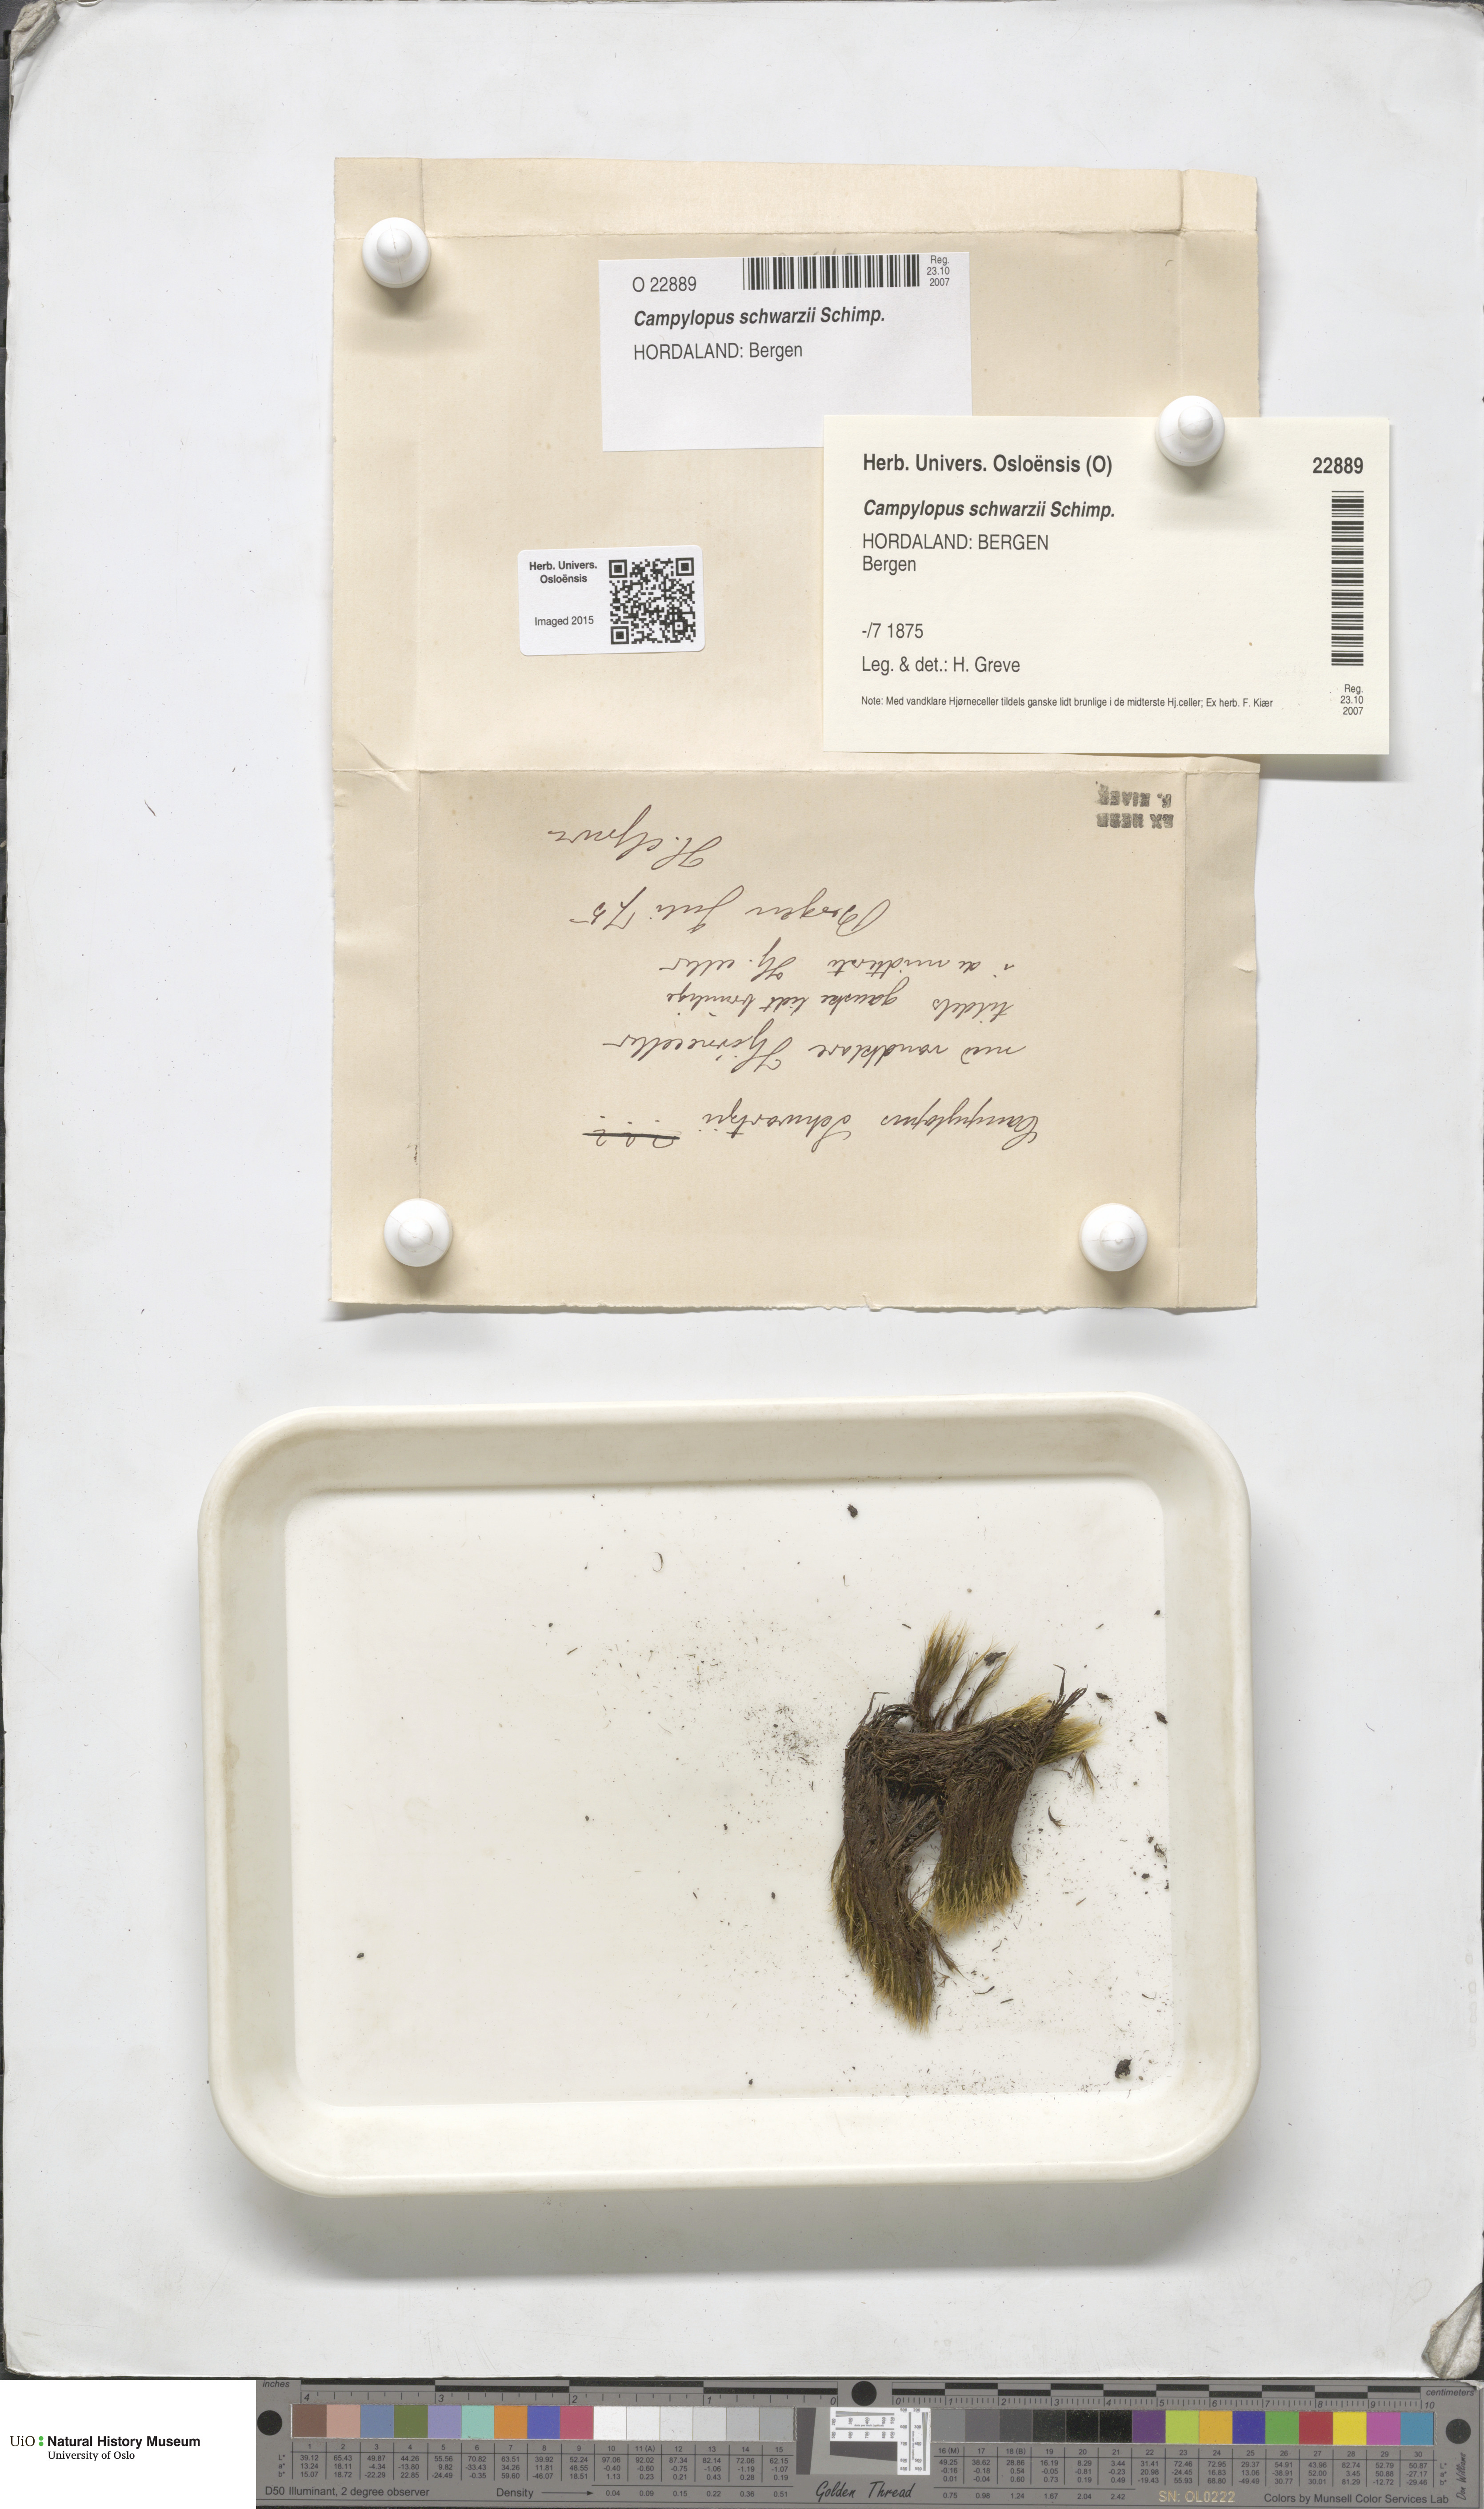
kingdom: Plantae
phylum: Bryophyta
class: Bryopsida
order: Dicranales
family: Leucobryaceae
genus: Campylopus
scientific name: Campylopus gracilis
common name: Schwarz's swan-neck moss
